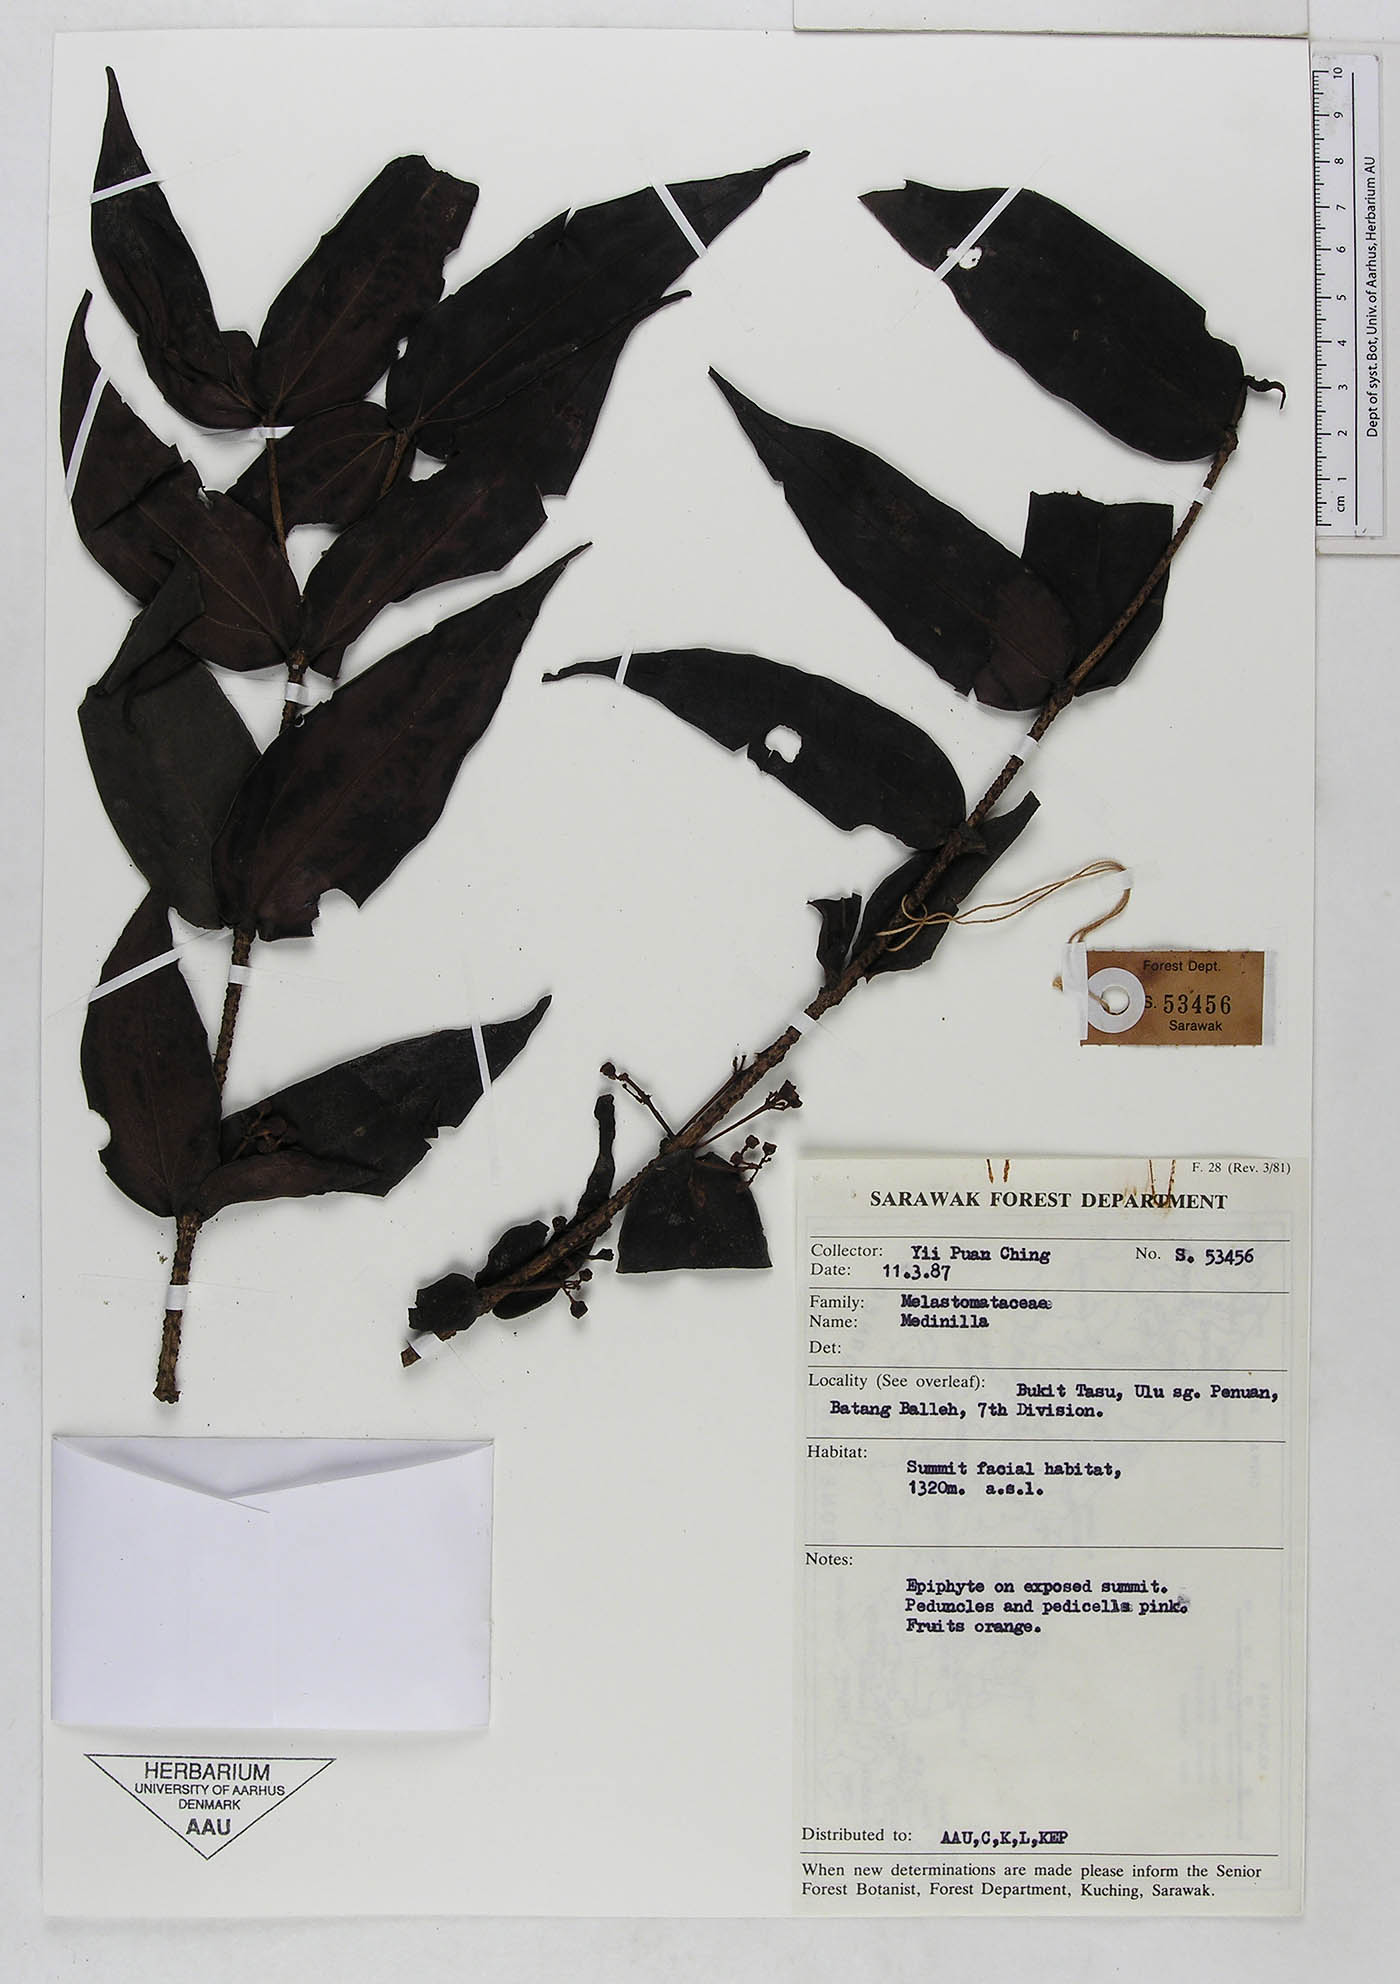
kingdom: Plantae
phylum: Tracheophyta
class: Magnoliopsida
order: Myrtales
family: Melastomataceae
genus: Medinilla
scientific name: Medinilla
